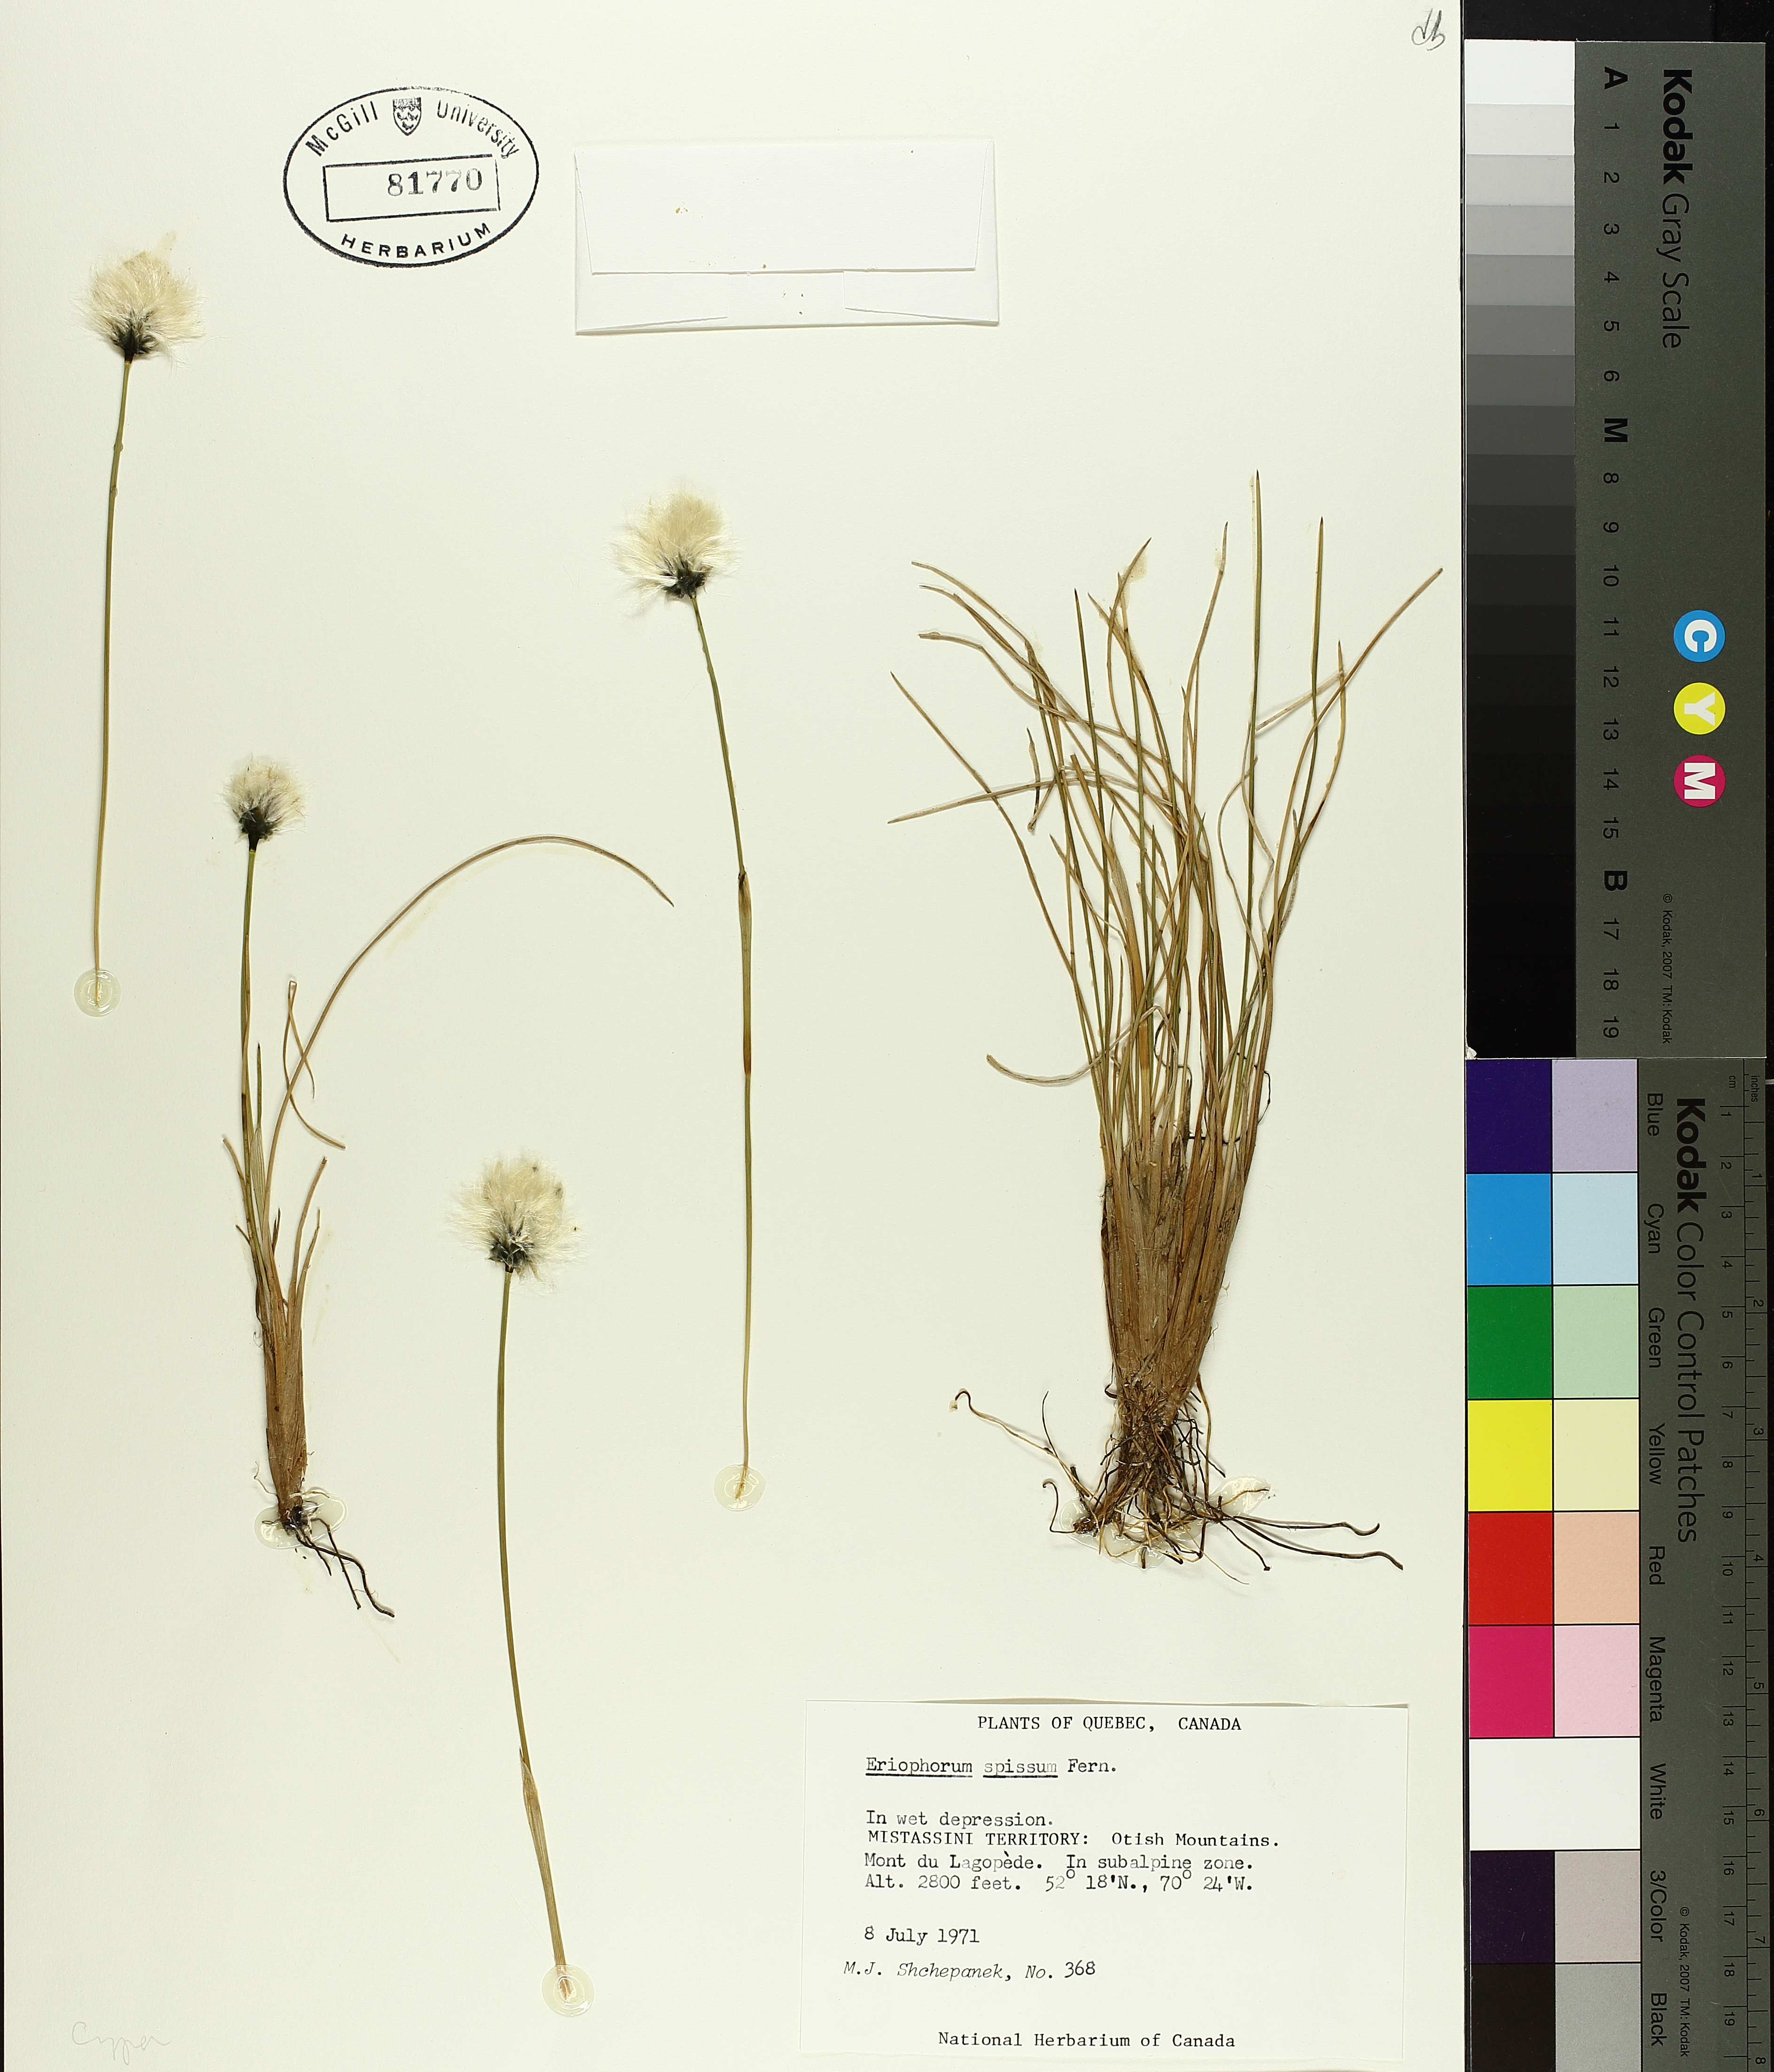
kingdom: Plantae
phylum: Tracheophyta
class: Liliopsida
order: Poales
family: Cyperaceae
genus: Eriophorum
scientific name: Eriophorum vaginatum
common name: Hare's-tail cottongrass
